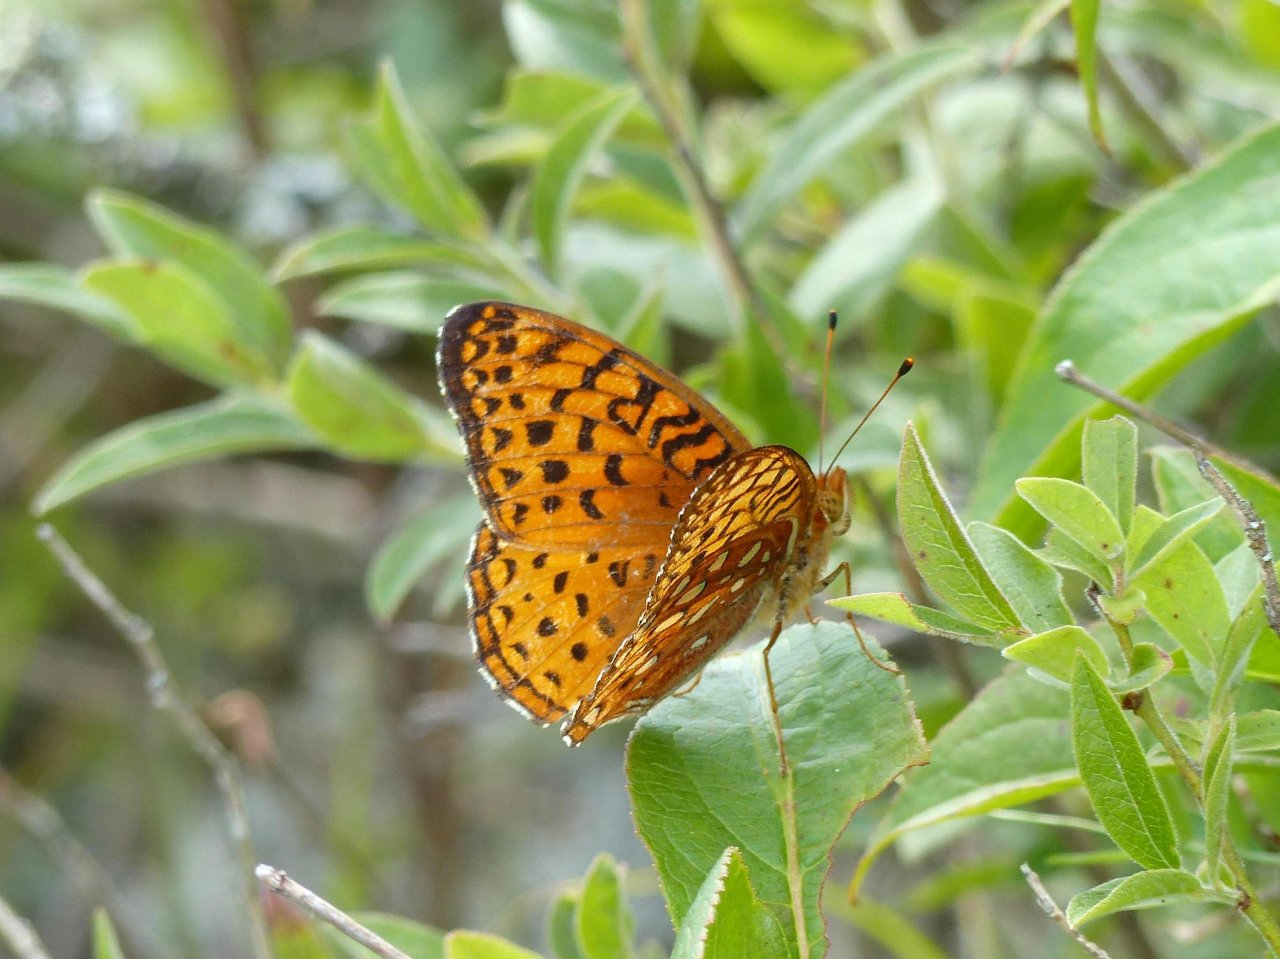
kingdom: Animalia
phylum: Arthropoda
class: Insecta
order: Lepidoptera
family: Nymphalidae
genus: Speyeria
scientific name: Speyeria aphrodite
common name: Aphrodite Fritillary
